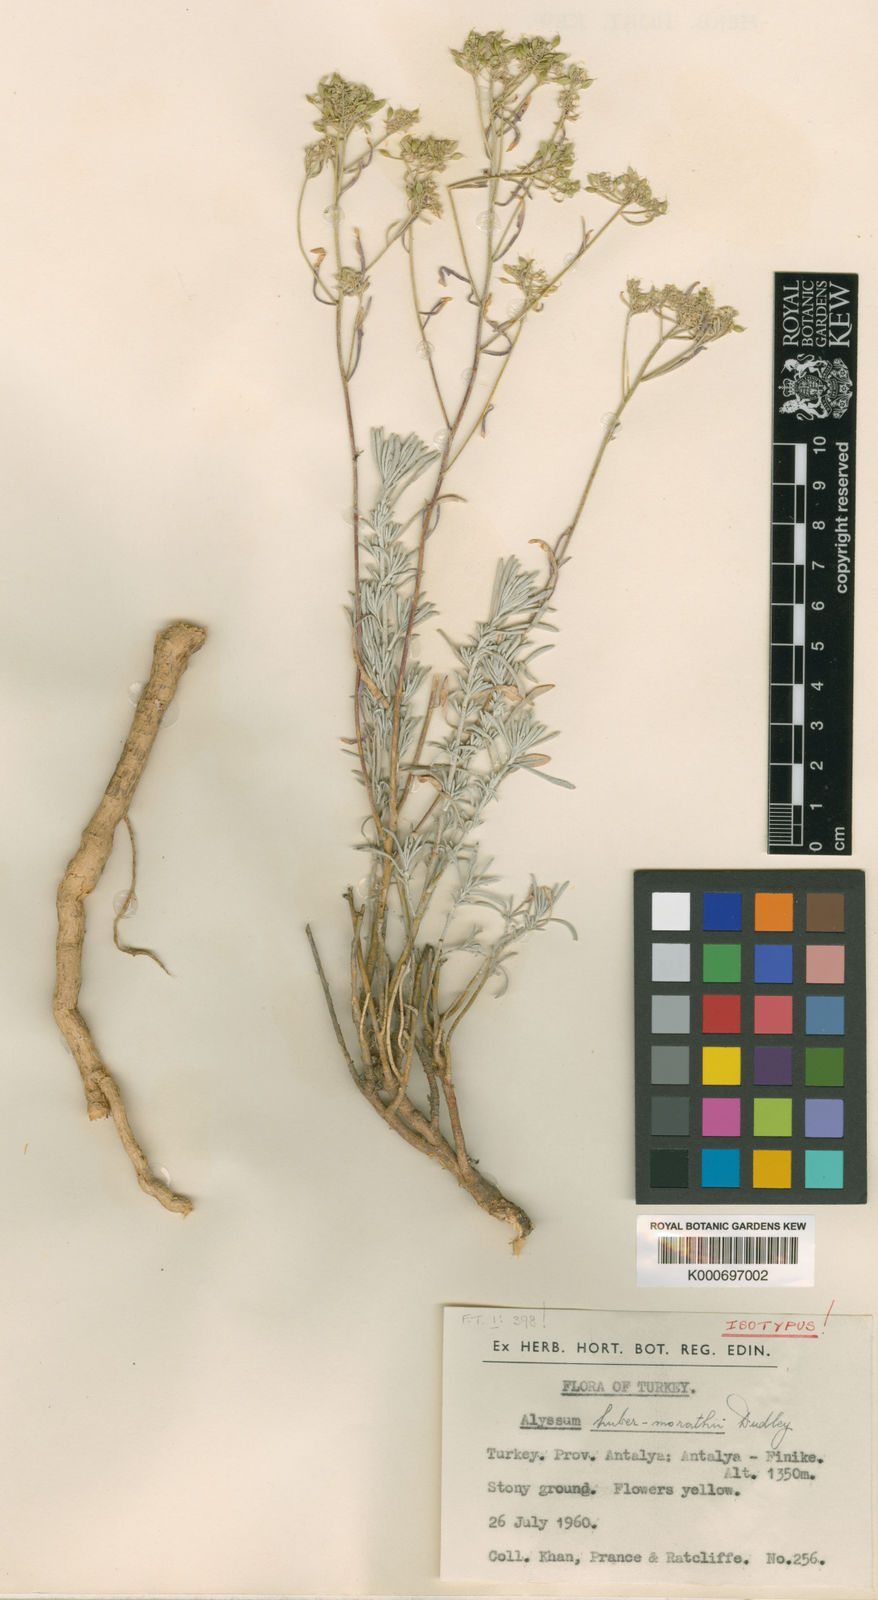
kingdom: Plantae
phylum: Tracheophyta
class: Magnoliopsida
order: Brassicales
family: Brassicaceae
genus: Odontarrhena
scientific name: Odontarrhena huber-morathii
